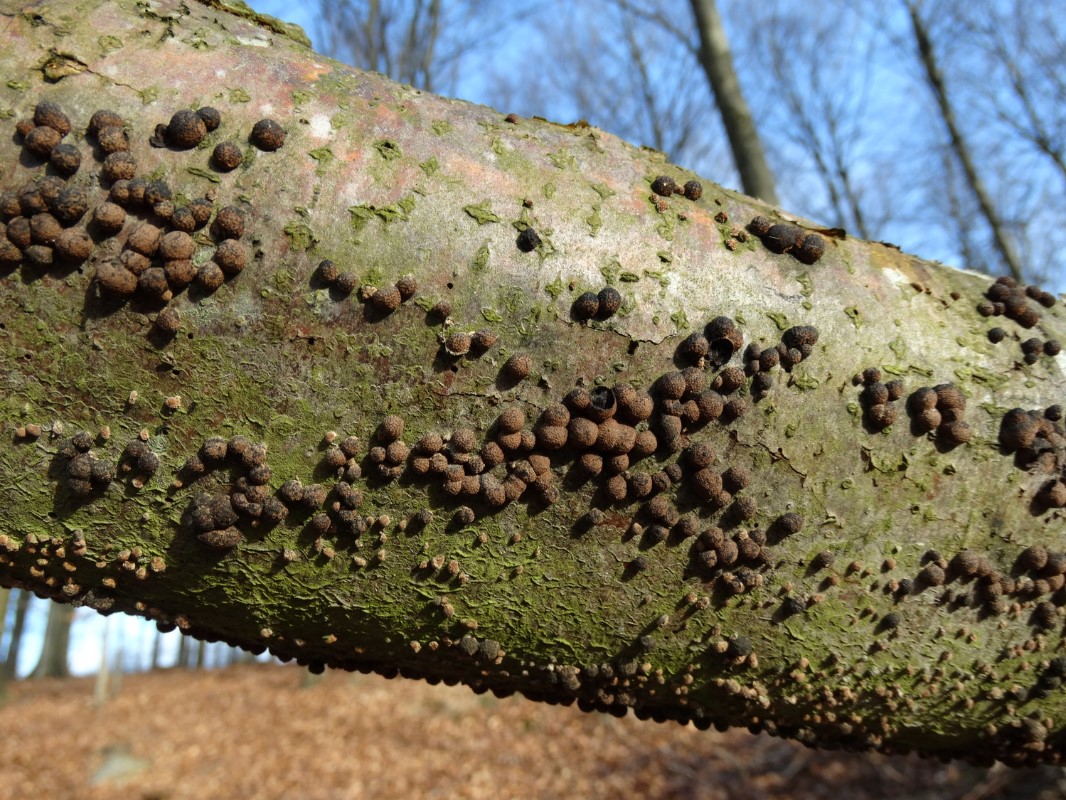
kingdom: Fungi
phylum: Ascomycota
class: Sordariomycetes
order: Xylariales
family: Hypoxylaceae
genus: Hypoxylon
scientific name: Hypoxylon fragiforme
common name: kuljordbær
